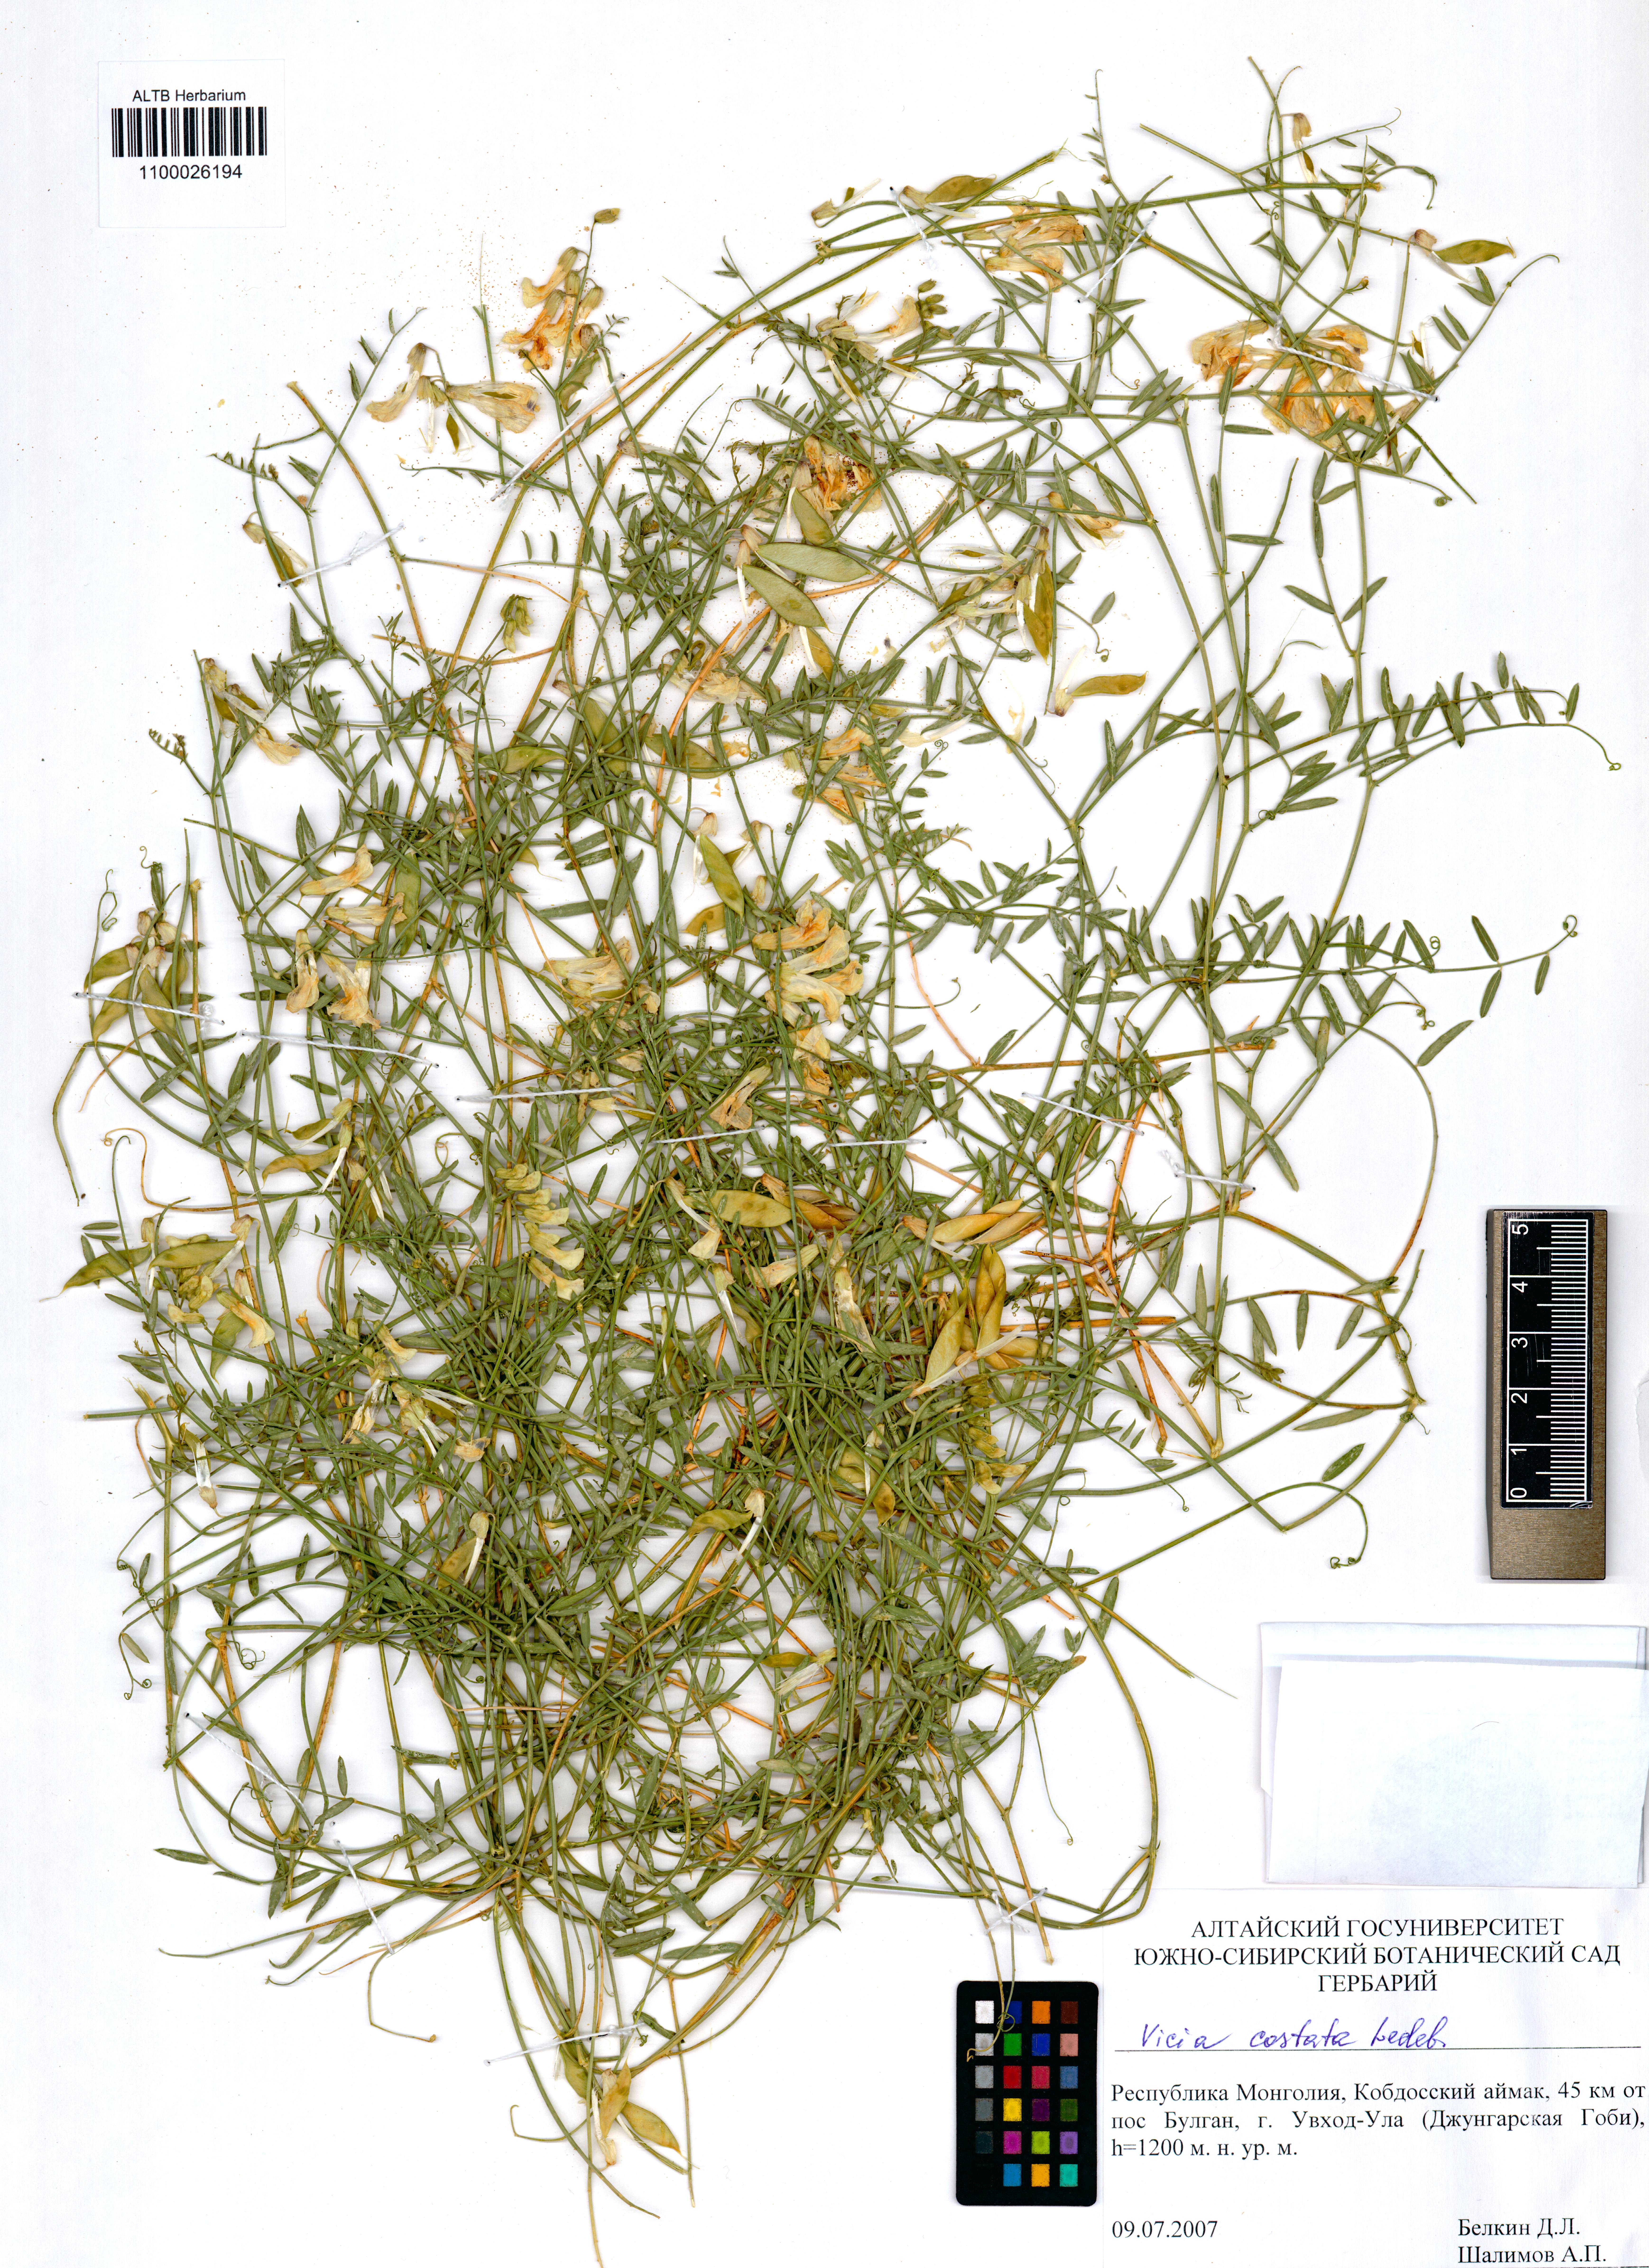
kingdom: Plantae
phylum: Tracheophyta
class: Magnoliopsida
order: Fabales
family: Fabaceae
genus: Vicia
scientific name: Vicia costata
